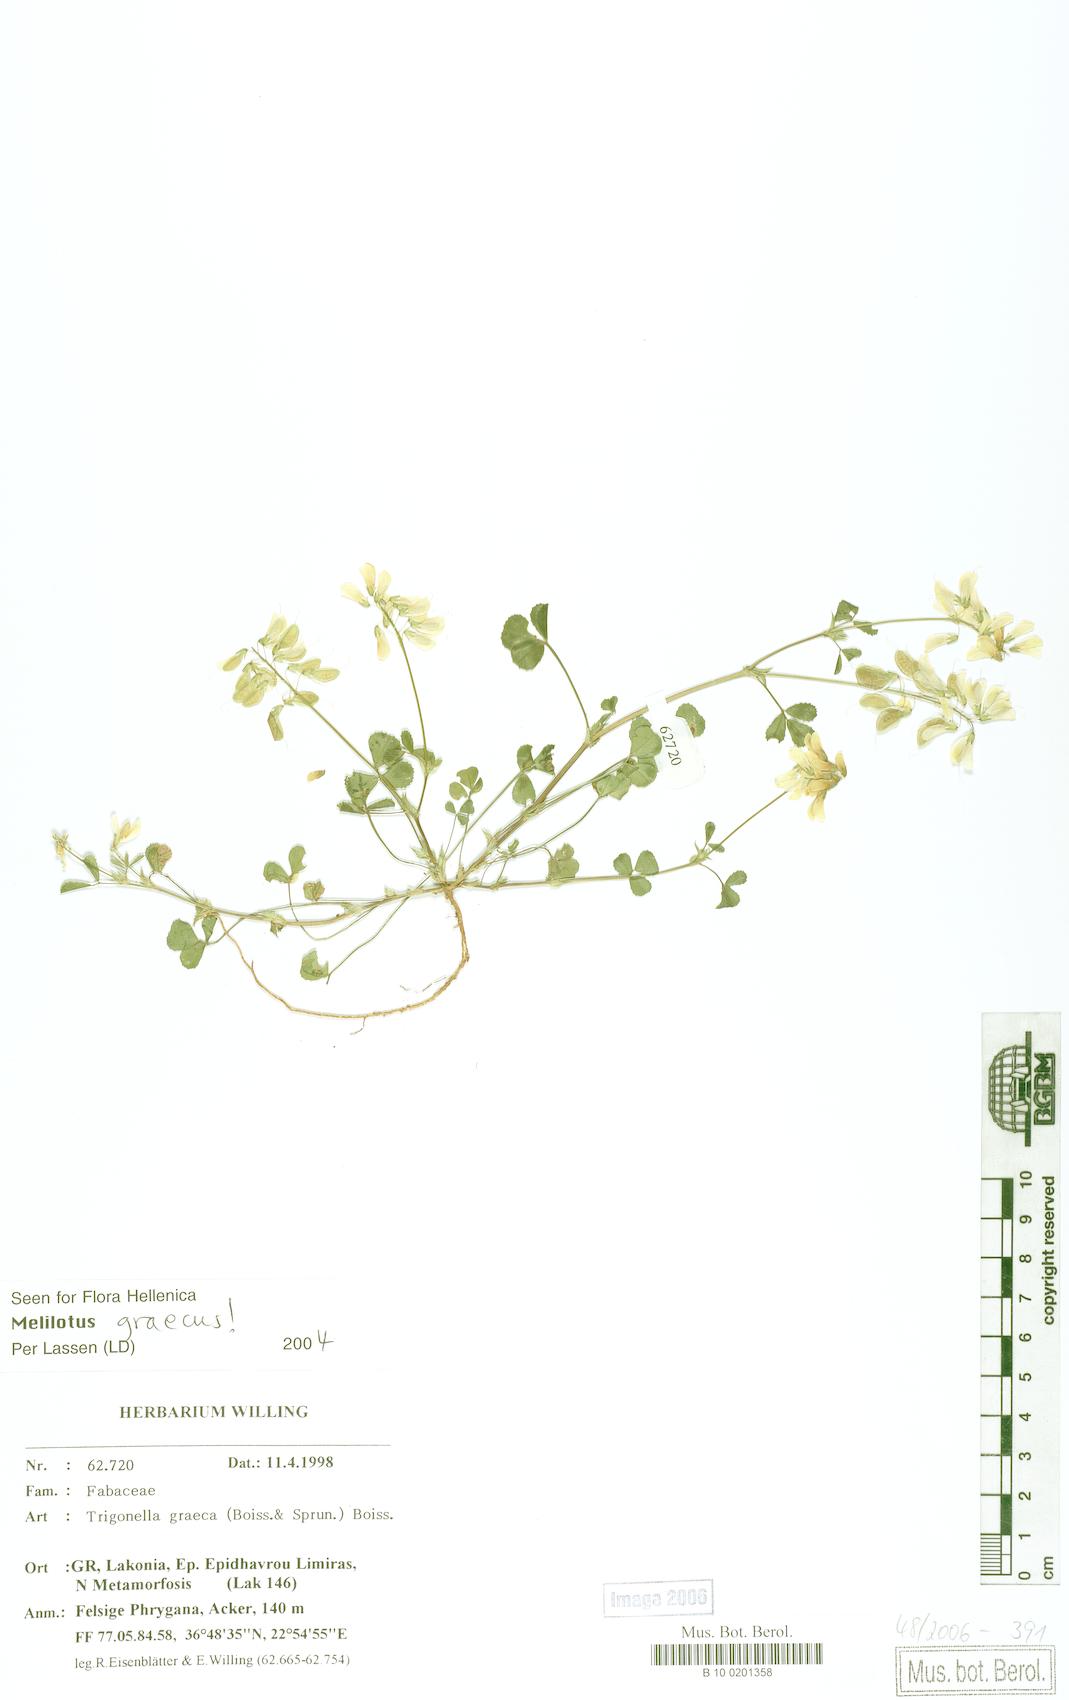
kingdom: Plantae
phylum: Tracheophyta
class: Magnoliopsida
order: Fabales
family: Fabaceae
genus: Trigonella
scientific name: Trigonella graeca
